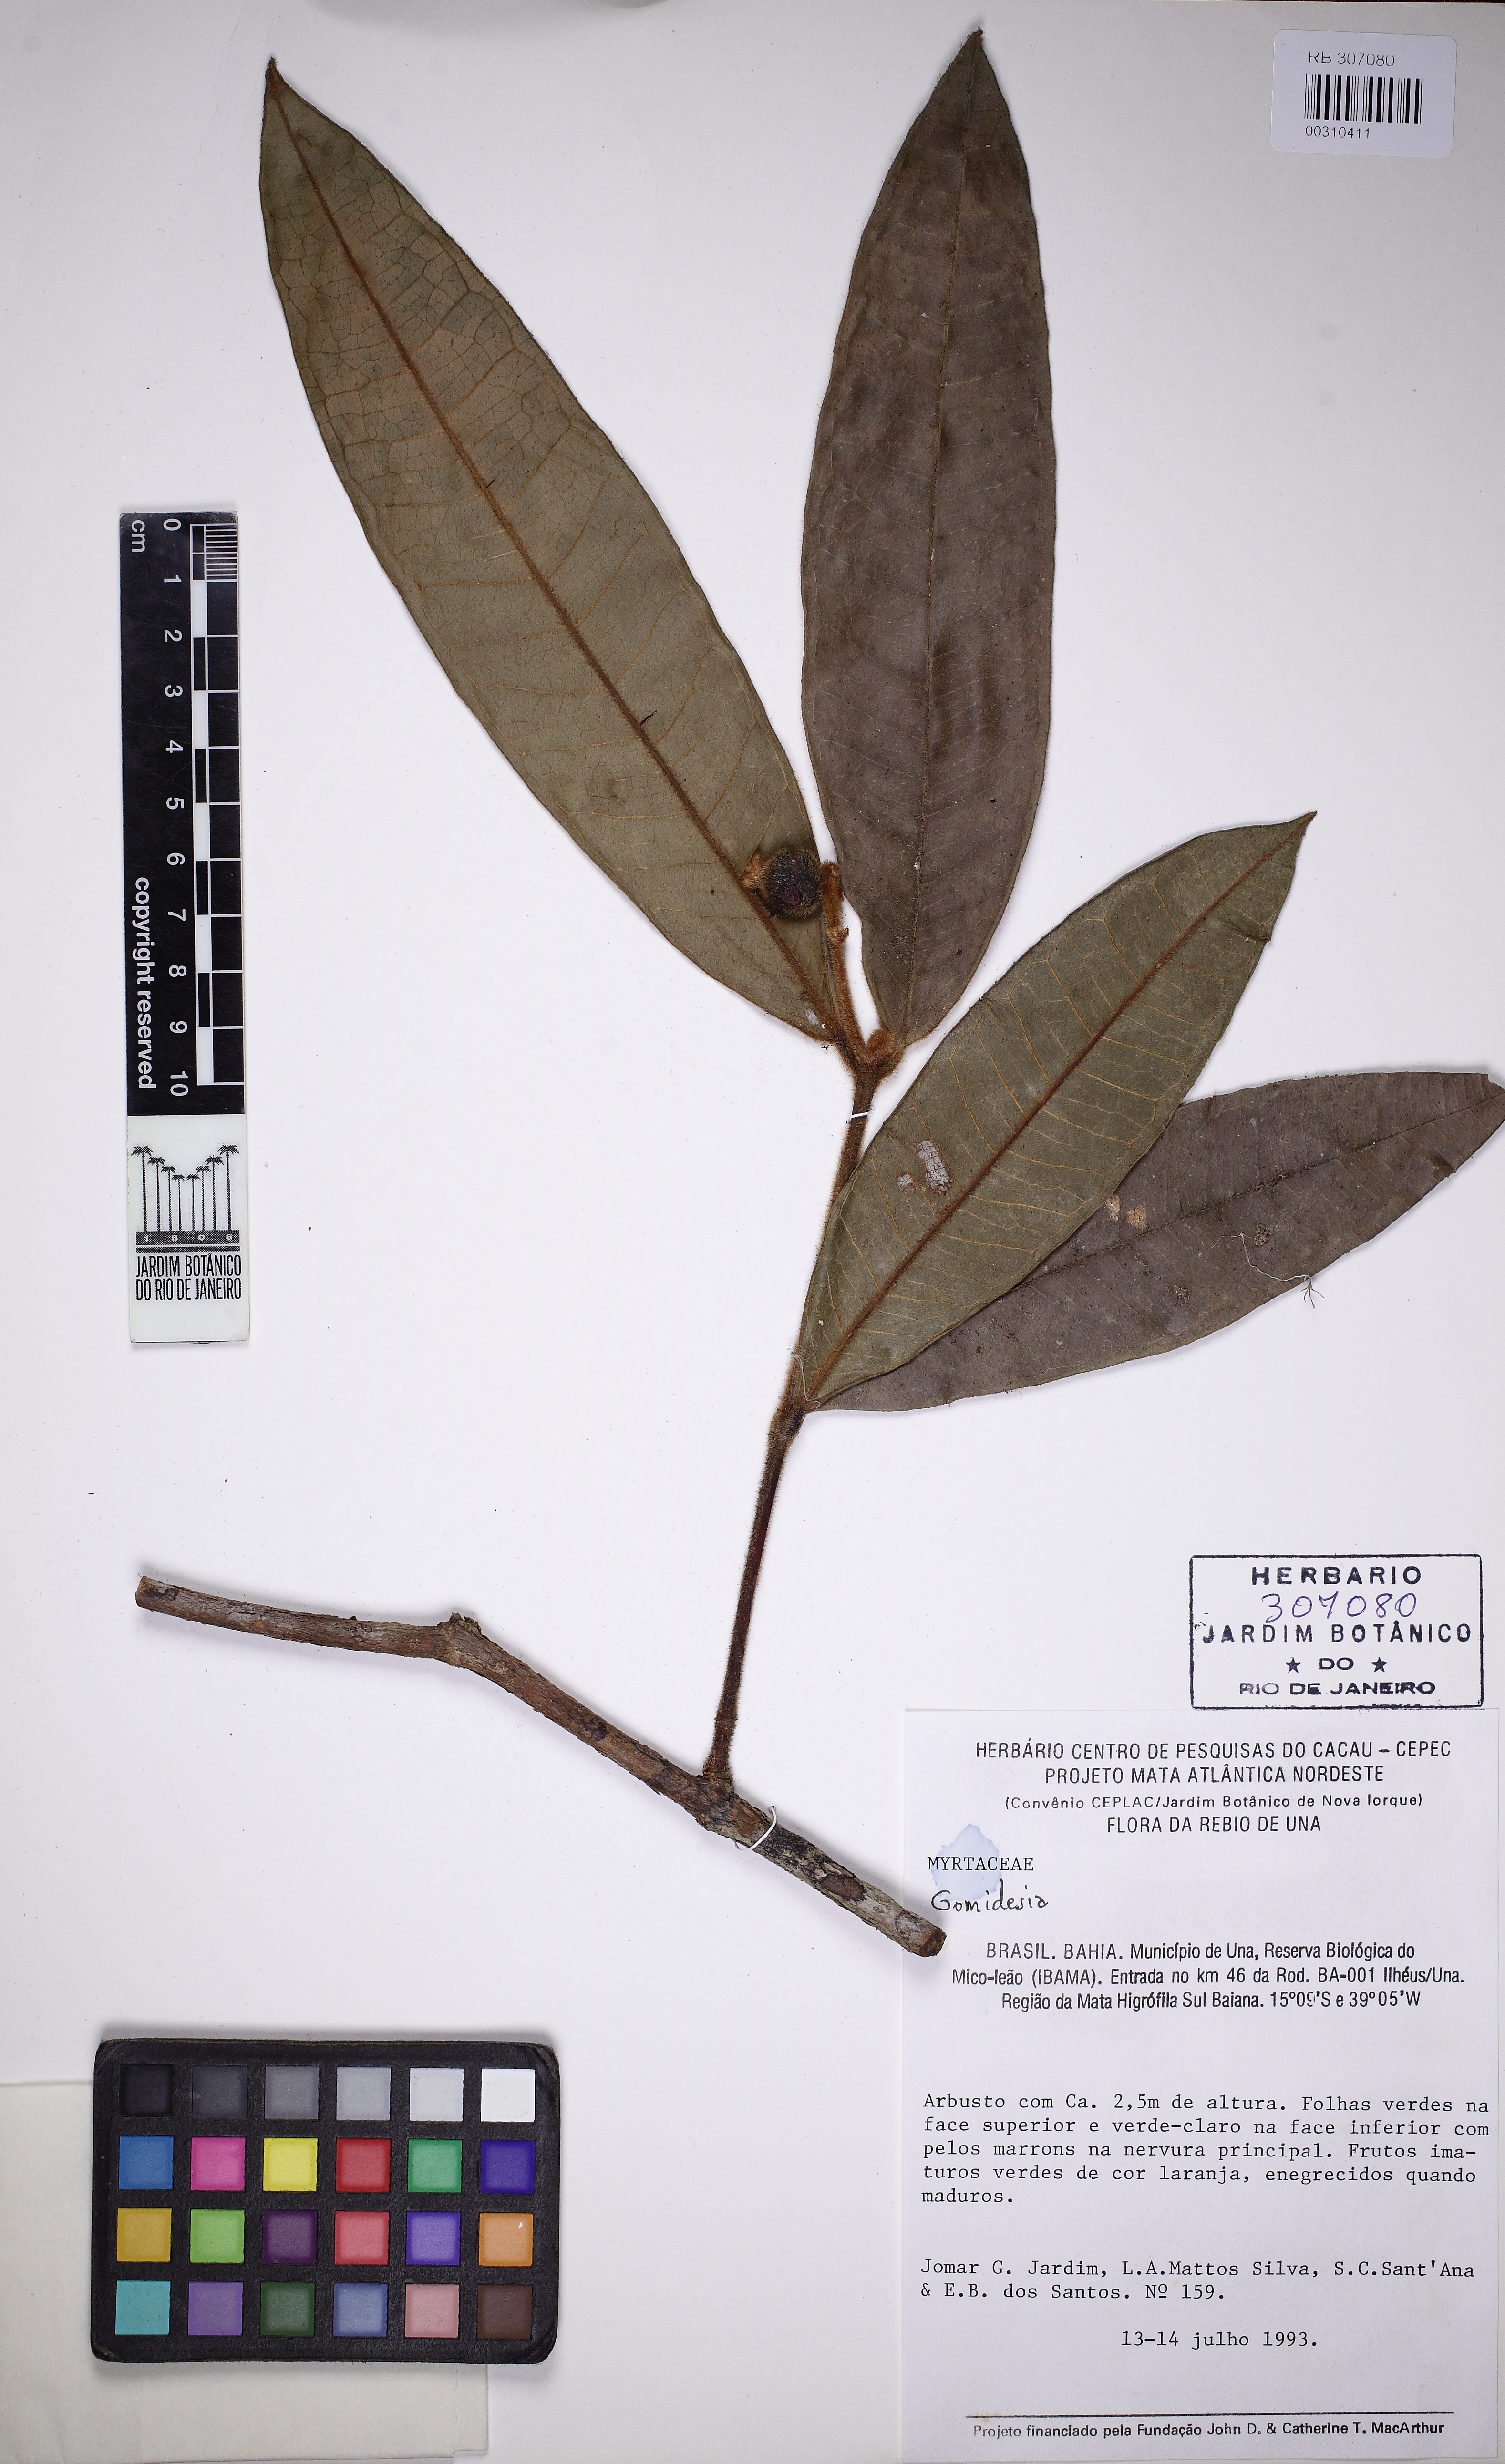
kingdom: Plantae
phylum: Tracheophyta
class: Magnoliopsida
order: Myrtales
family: Myrtaceae
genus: Myrcia
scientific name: Myrcia carvalhoi
